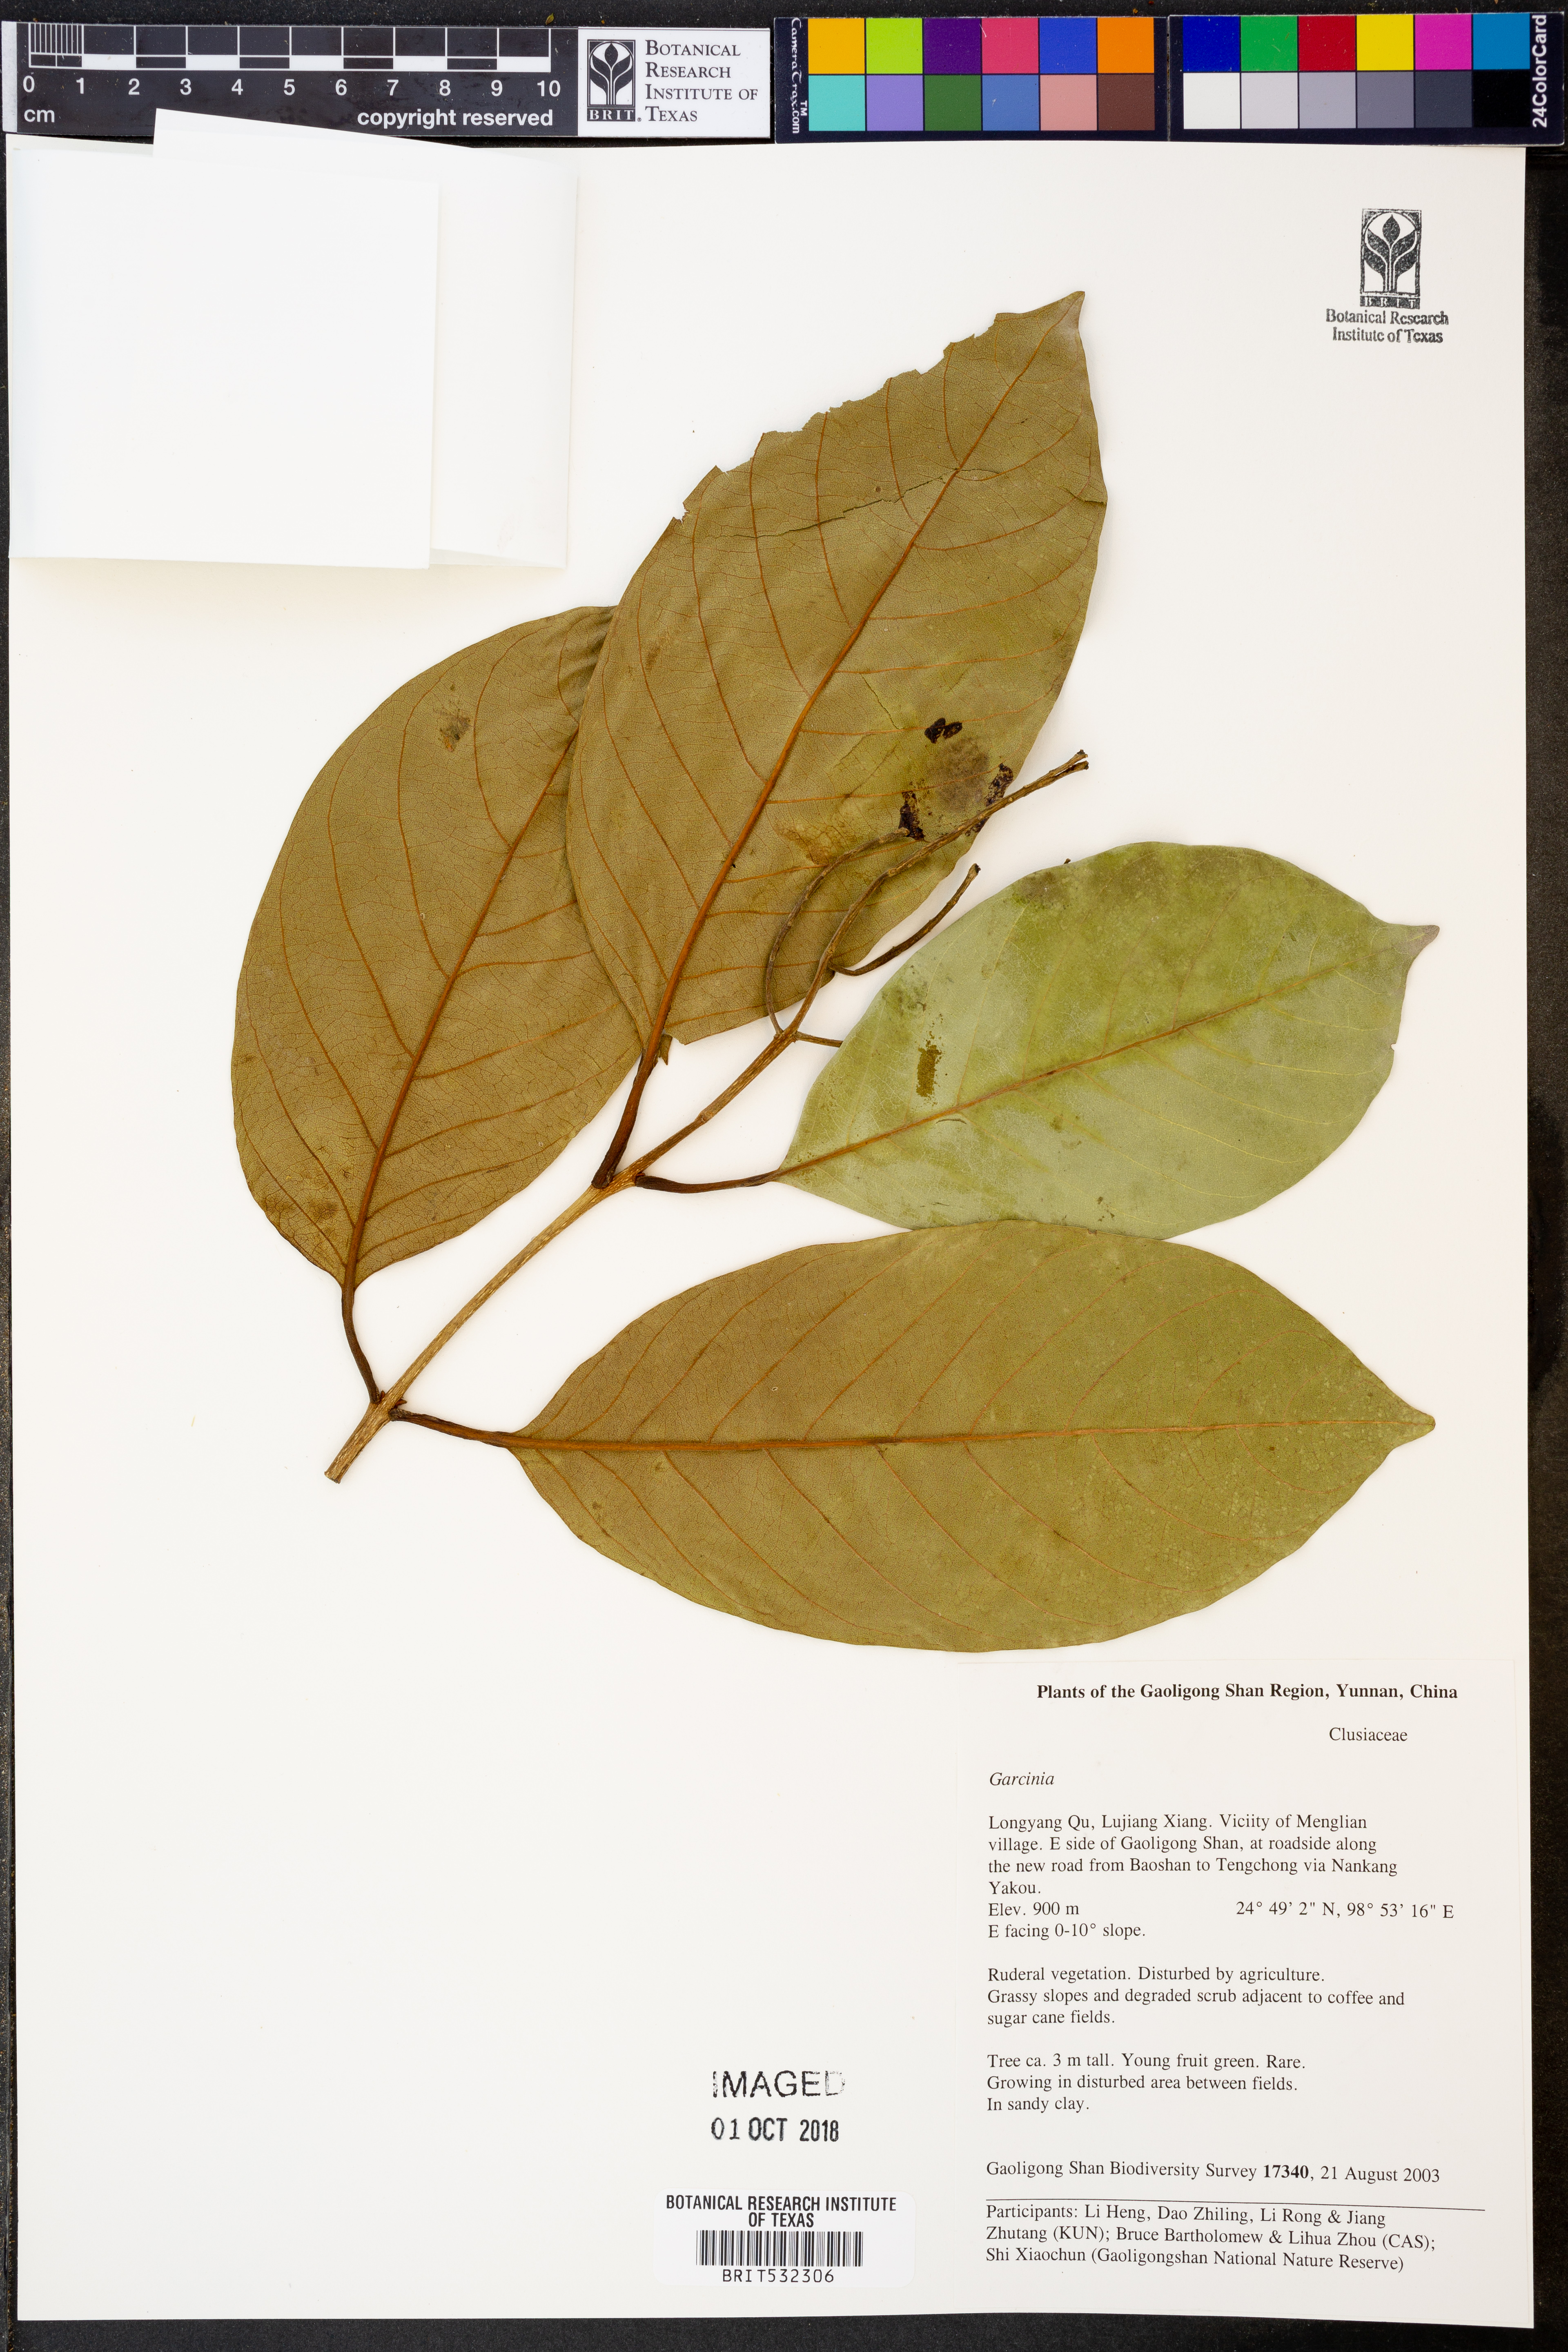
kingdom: Plantae
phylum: Tracheophyta
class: Magnoliopsida
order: Malpighiales
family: Clusiaceae
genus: Garcinia
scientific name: Garcinia
